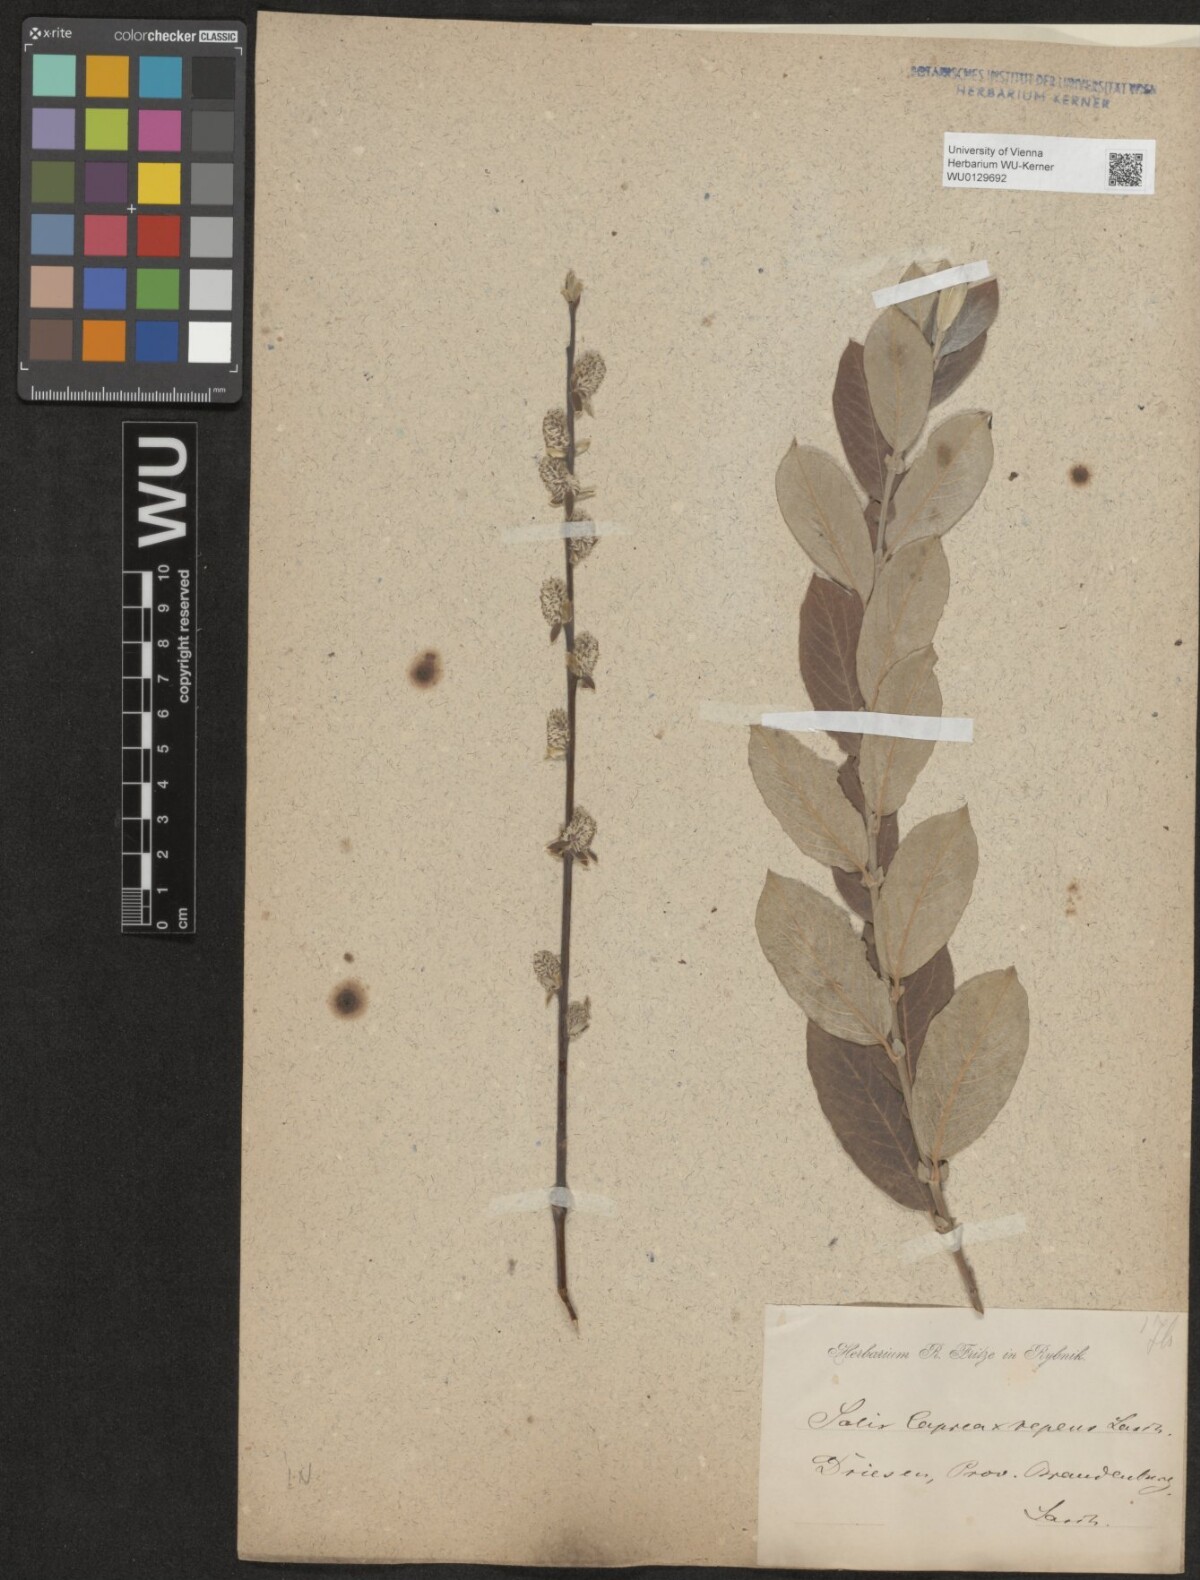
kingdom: Plantae
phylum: Tracheophyta
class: Magnoliopsida
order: Malpighiales
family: Salicaceae
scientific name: Salicaceae
